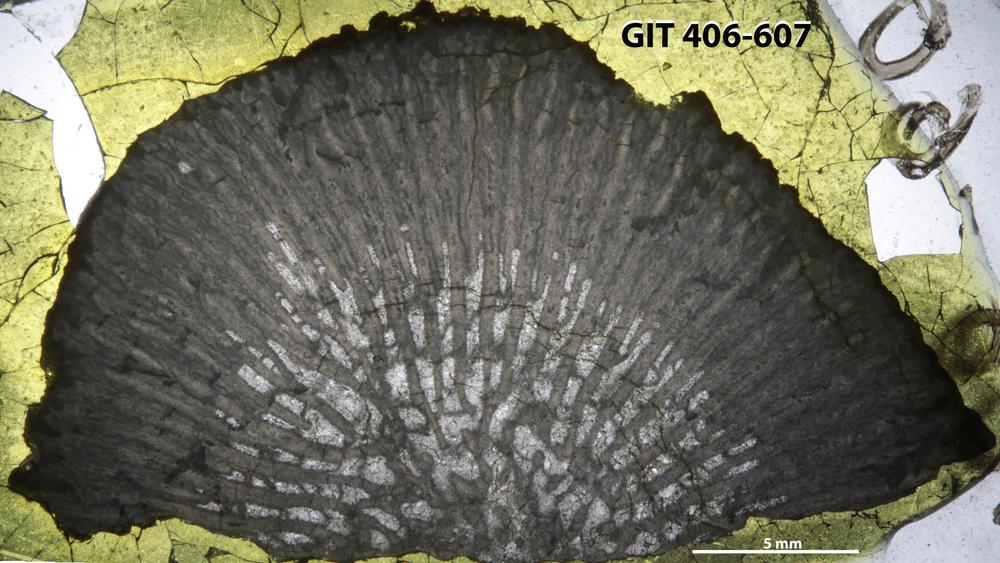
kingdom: Animalia
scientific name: Animalia
